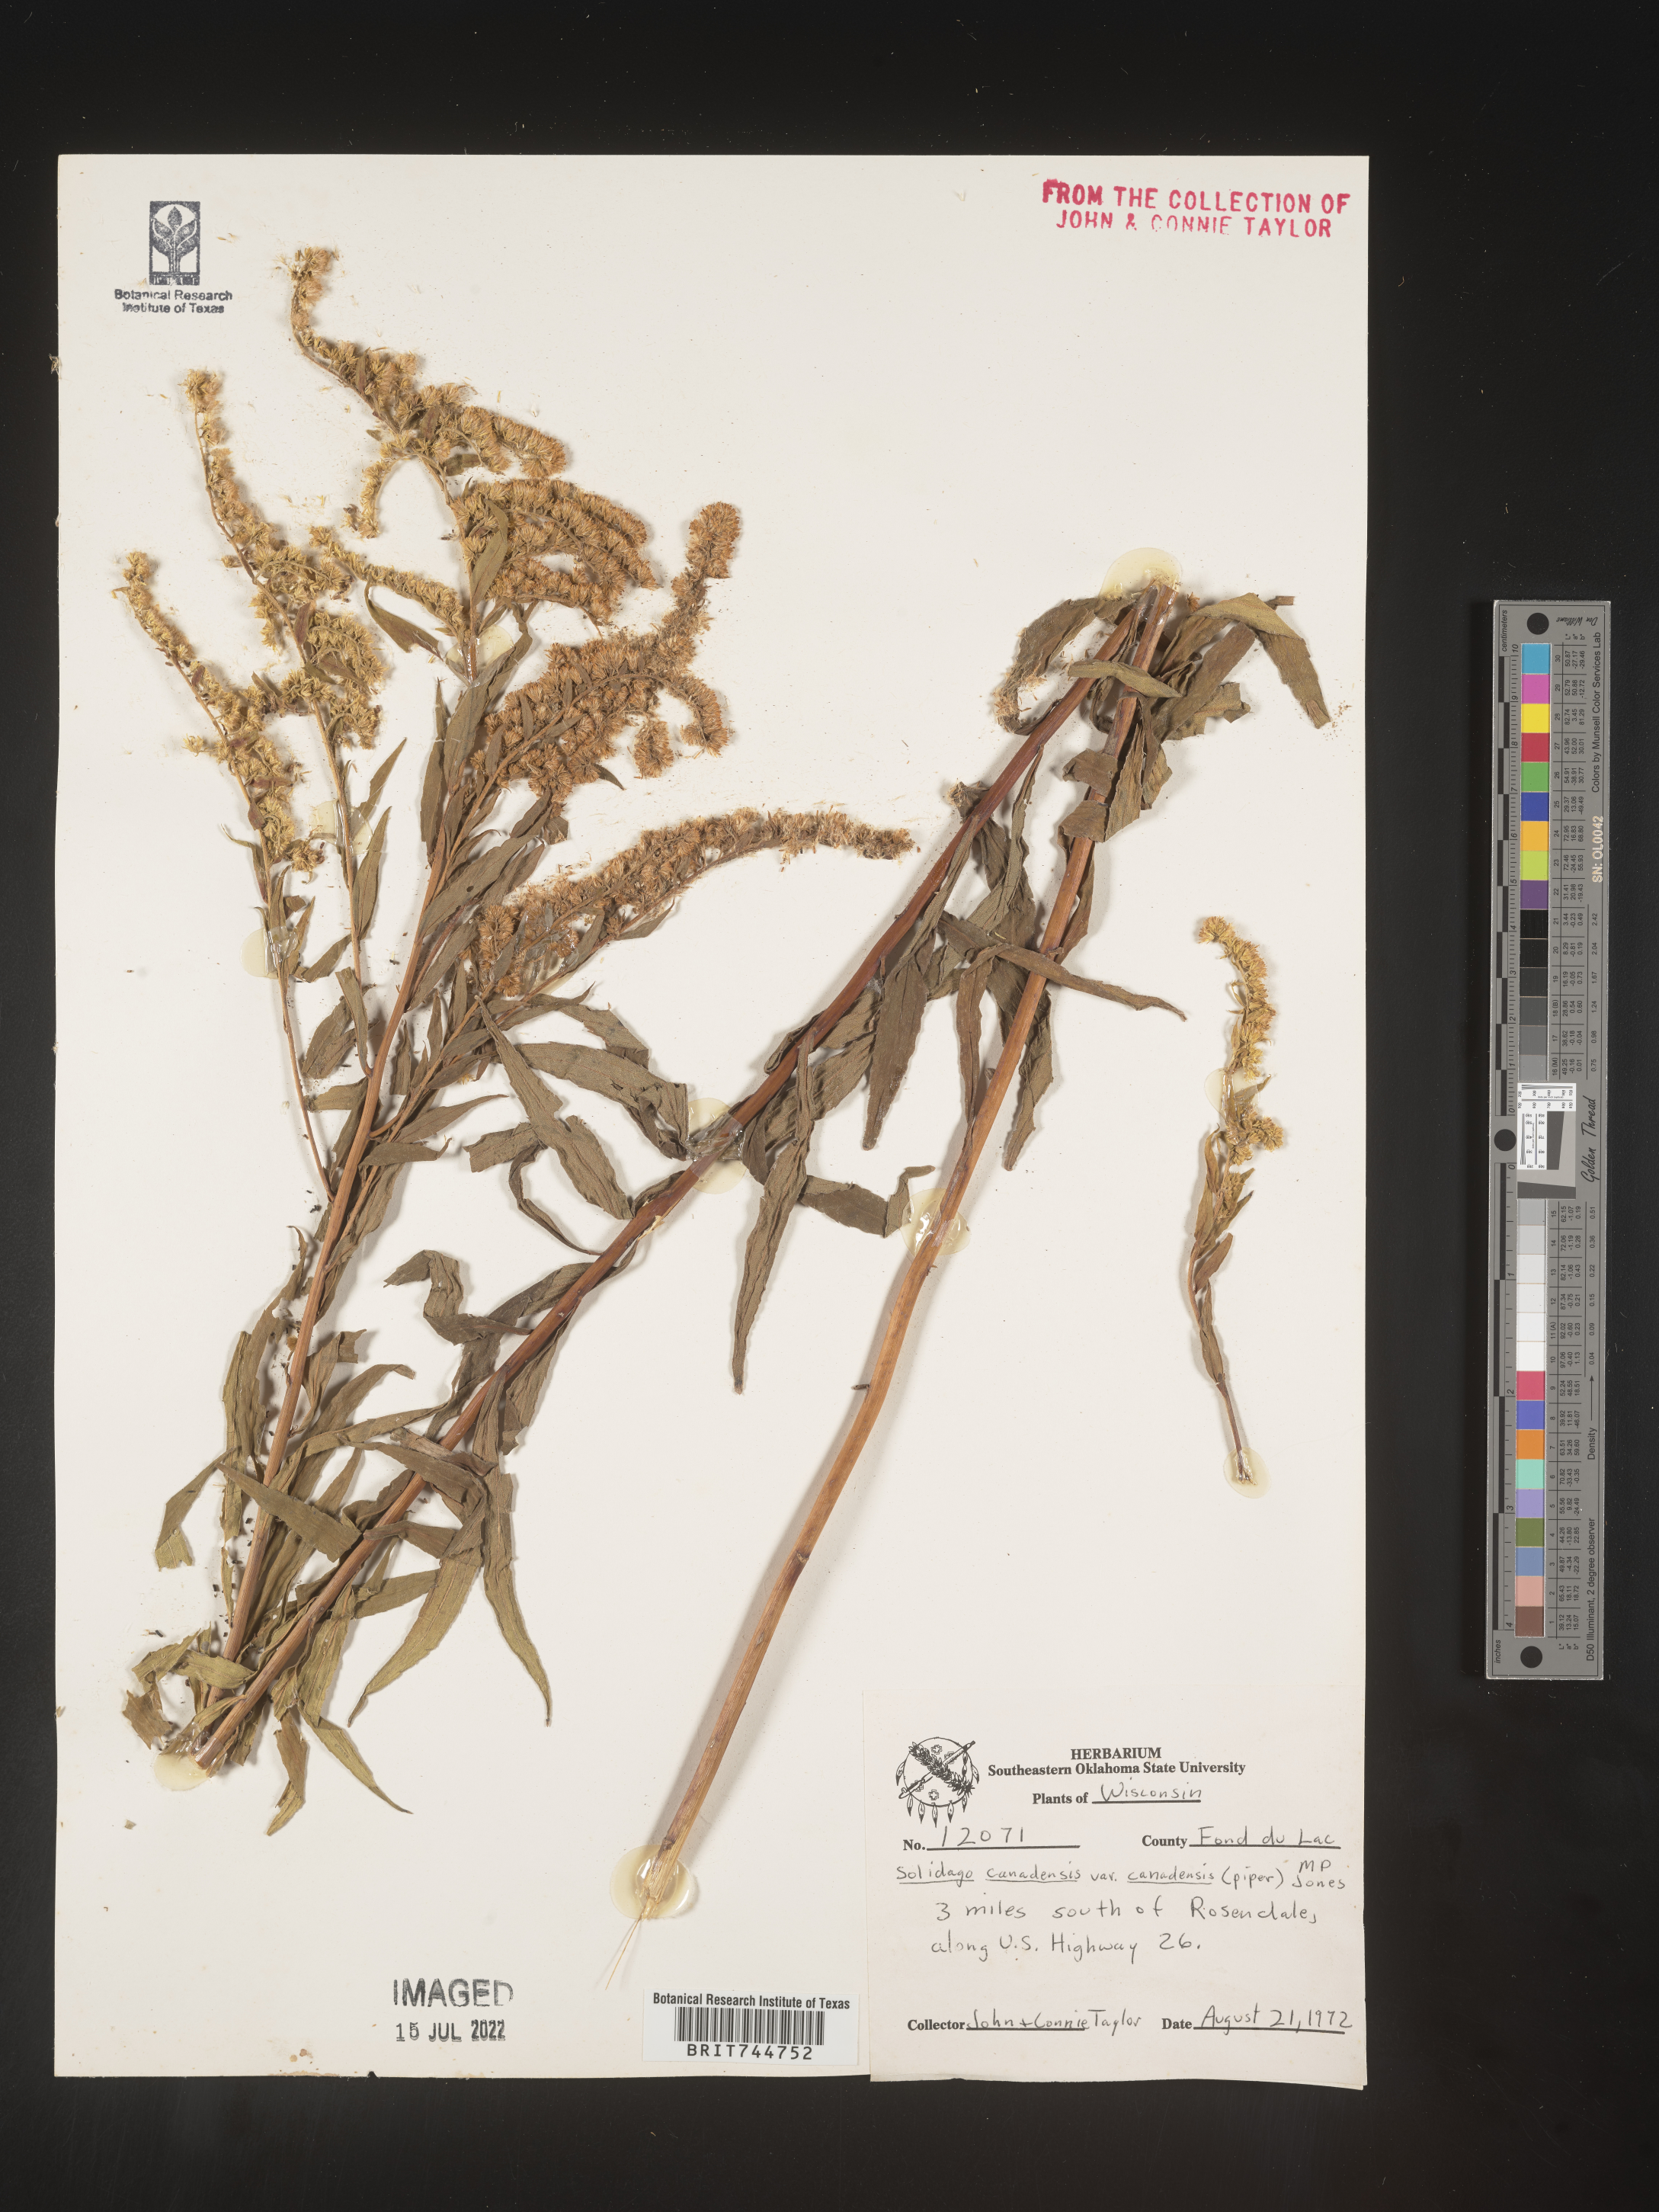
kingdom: Plantae
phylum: Tracheophyta
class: Magnoliopsida
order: Asterales
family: Asteraceae
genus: Solidago
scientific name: Solidago canadensis
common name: Canada goldenrod
